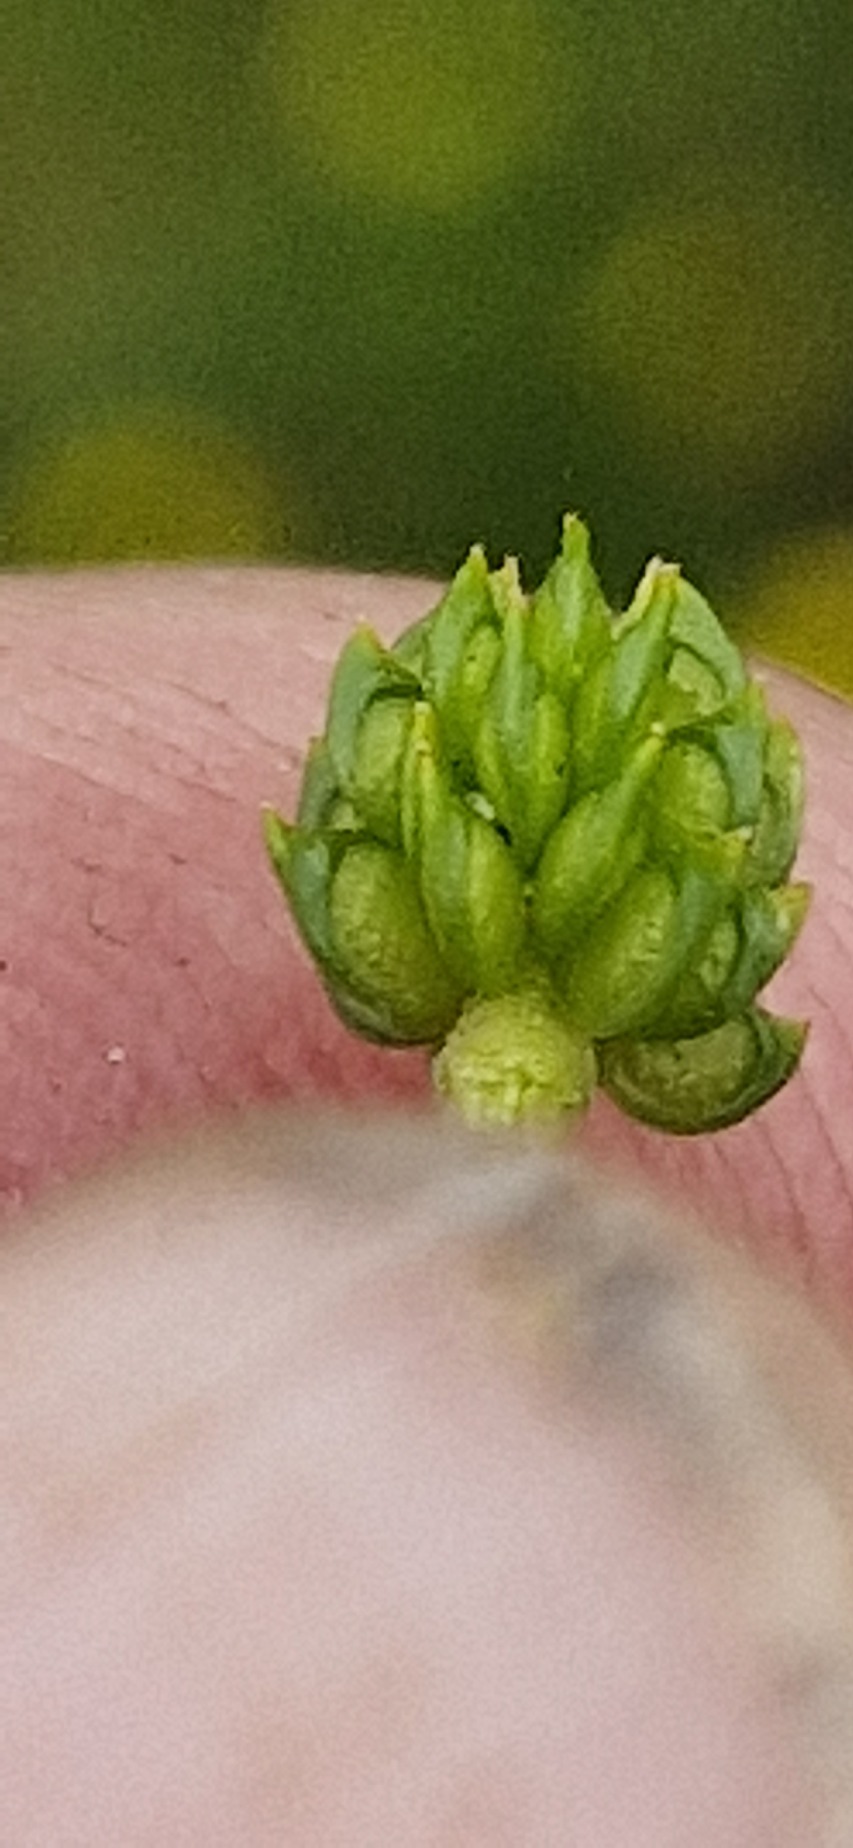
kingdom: Plantae
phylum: Tracheophyta
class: Magnoliopsida
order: Ranunculales
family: Ranunculaceae
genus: Ranunculus
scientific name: Ranunculus sardous
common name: Stivhåret ranunkel
